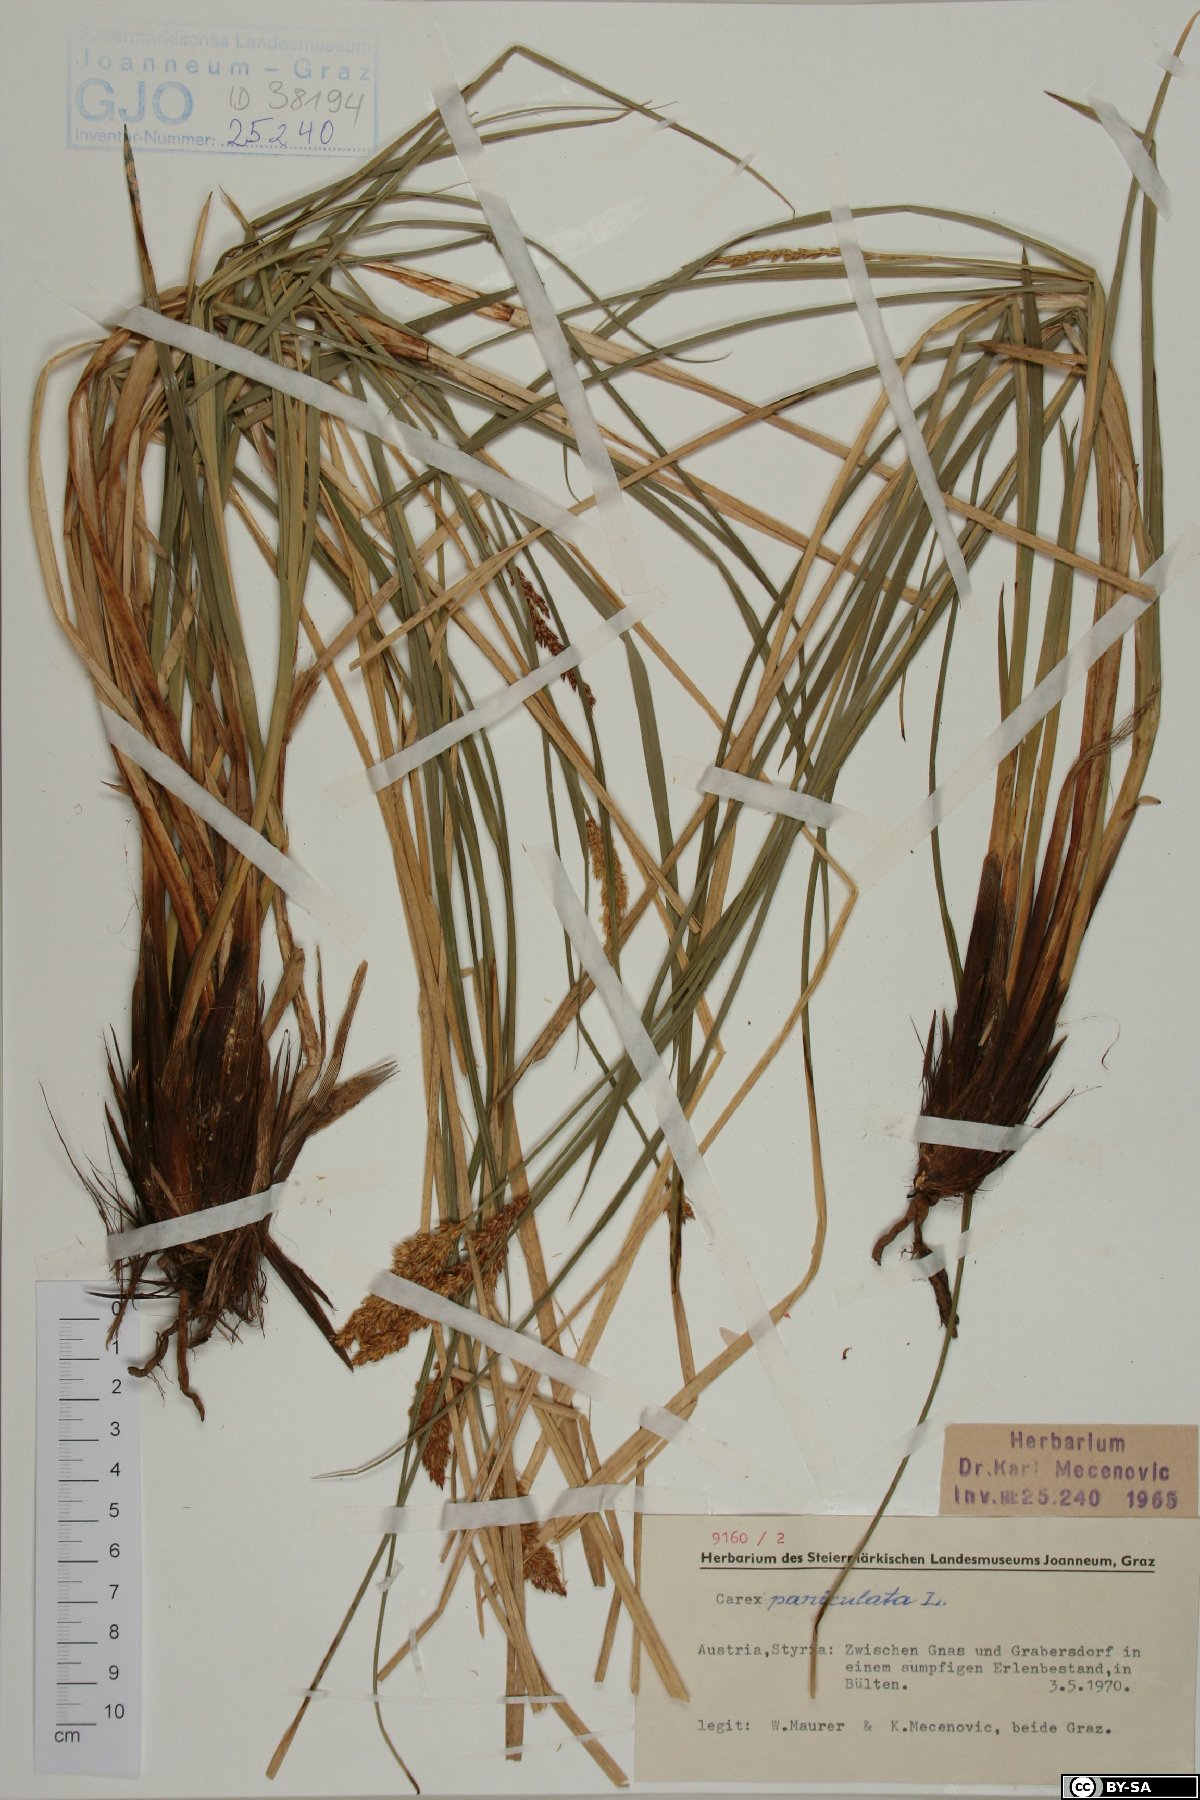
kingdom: Plantae
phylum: Tracheophyta
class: Liliopsida
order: Poales
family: Cyperaceae
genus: Carex
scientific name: Carex paniculata
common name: Greater tussock-sedge
